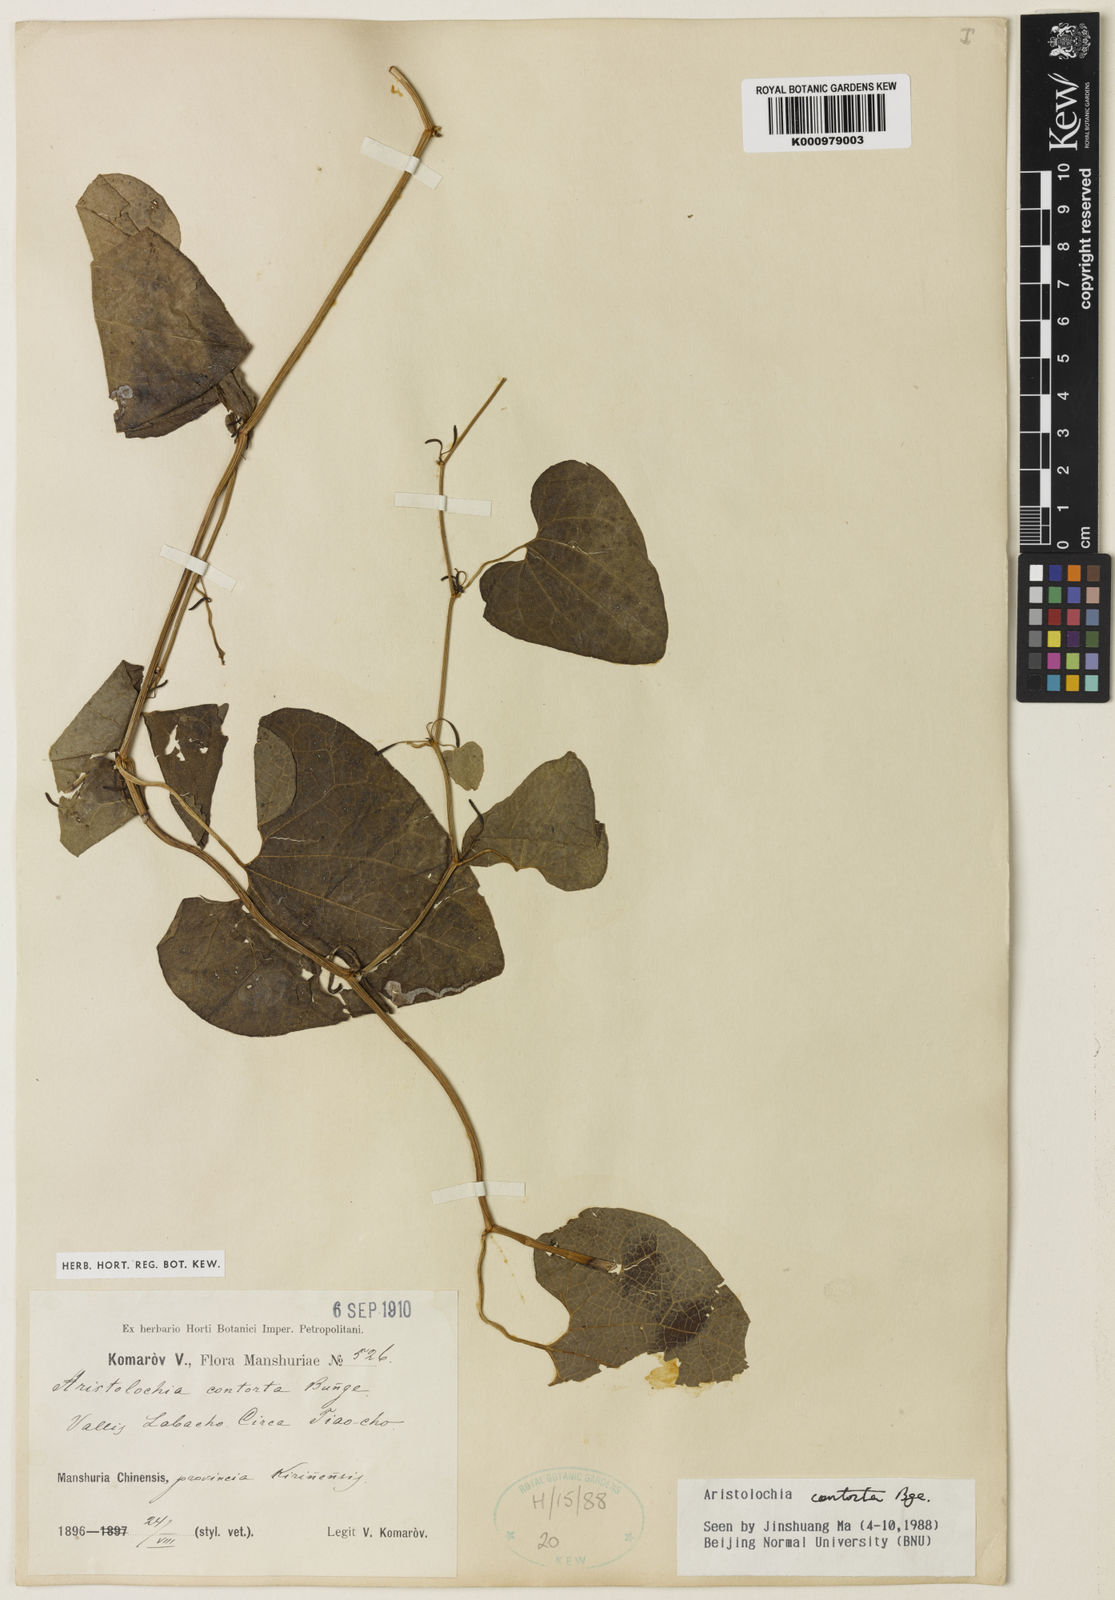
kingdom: Plantae
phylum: Tracheophyta
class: Magnoliopsida
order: Piperales
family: Aristolochiaceae
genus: Aristolochia
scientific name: Aristolochia contorta
